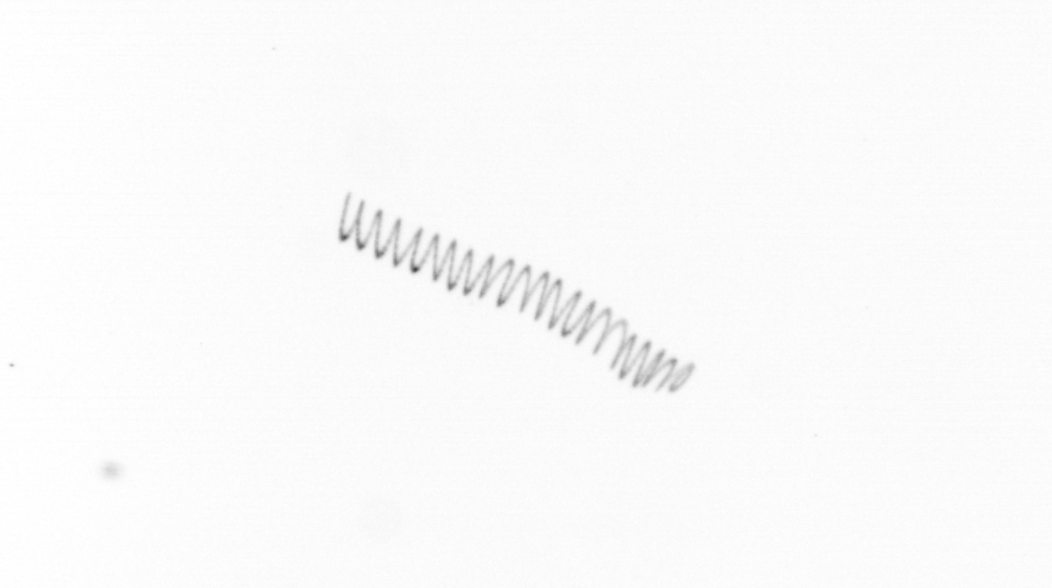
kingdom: Chromista
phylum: Ochrophyta
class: Bacillariophyceae
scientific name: Bacillariophyceae
